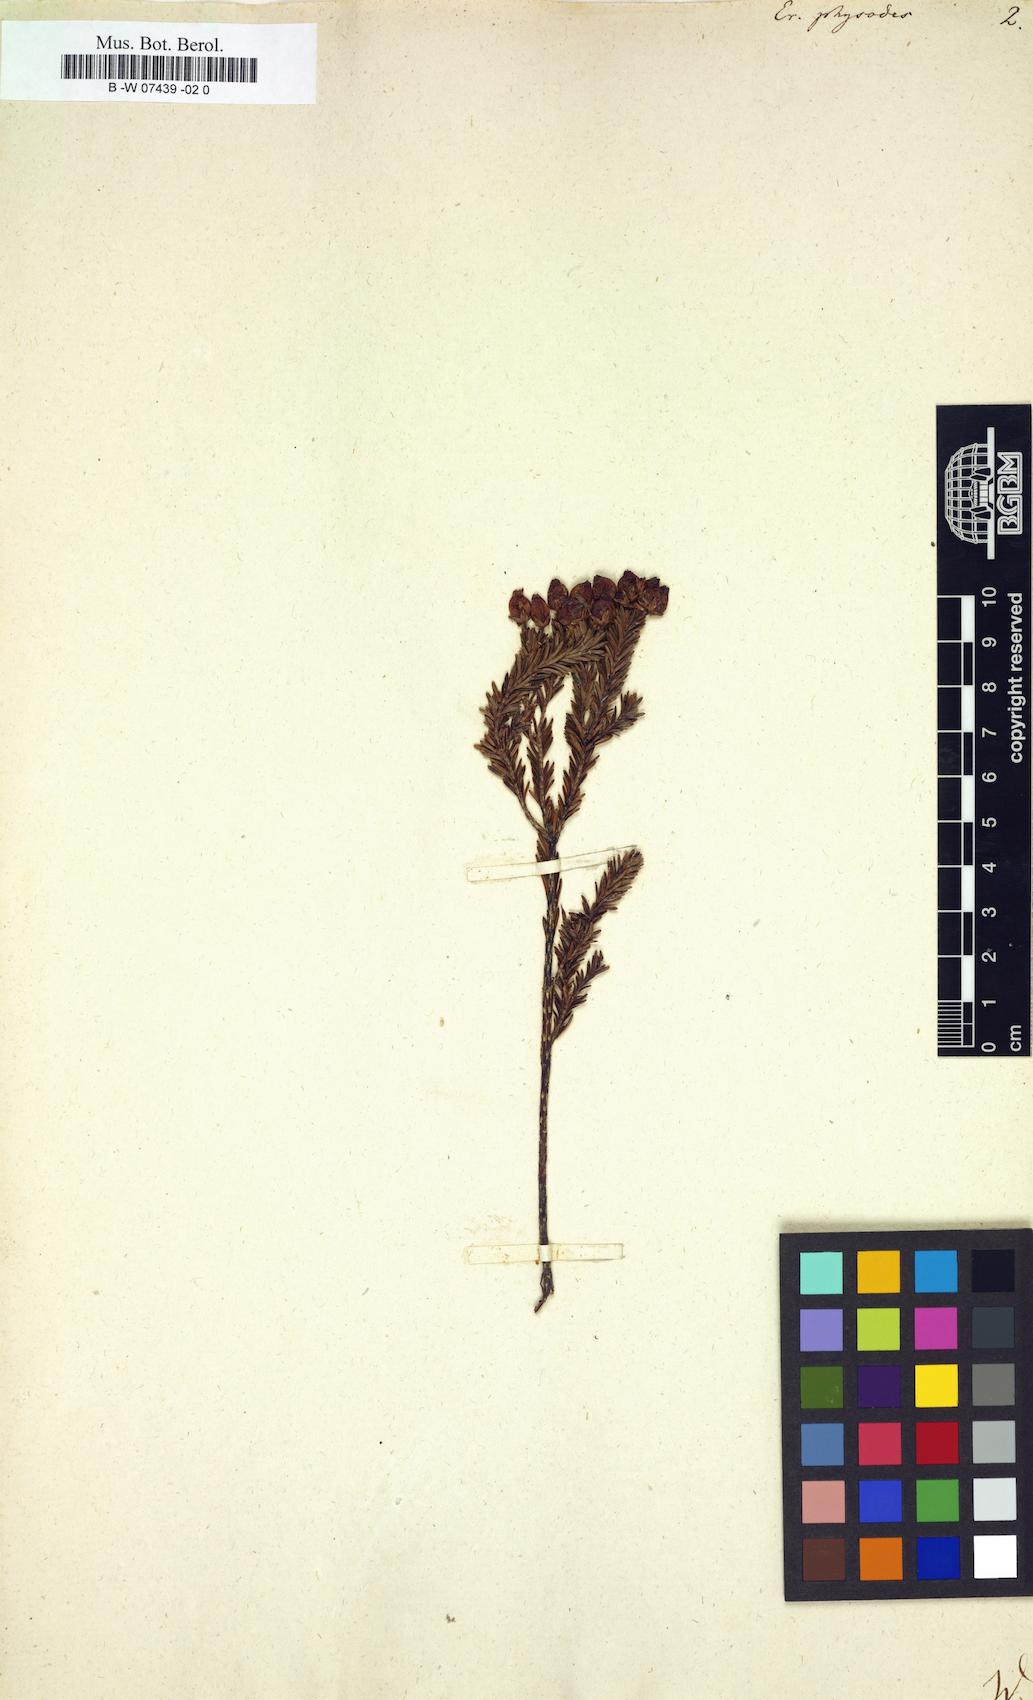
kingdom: Plantae
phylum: Tracheophyta
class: Magnoliopsida
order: Ericales
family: Ericaceae
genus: Erica
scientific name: Erica physodes
